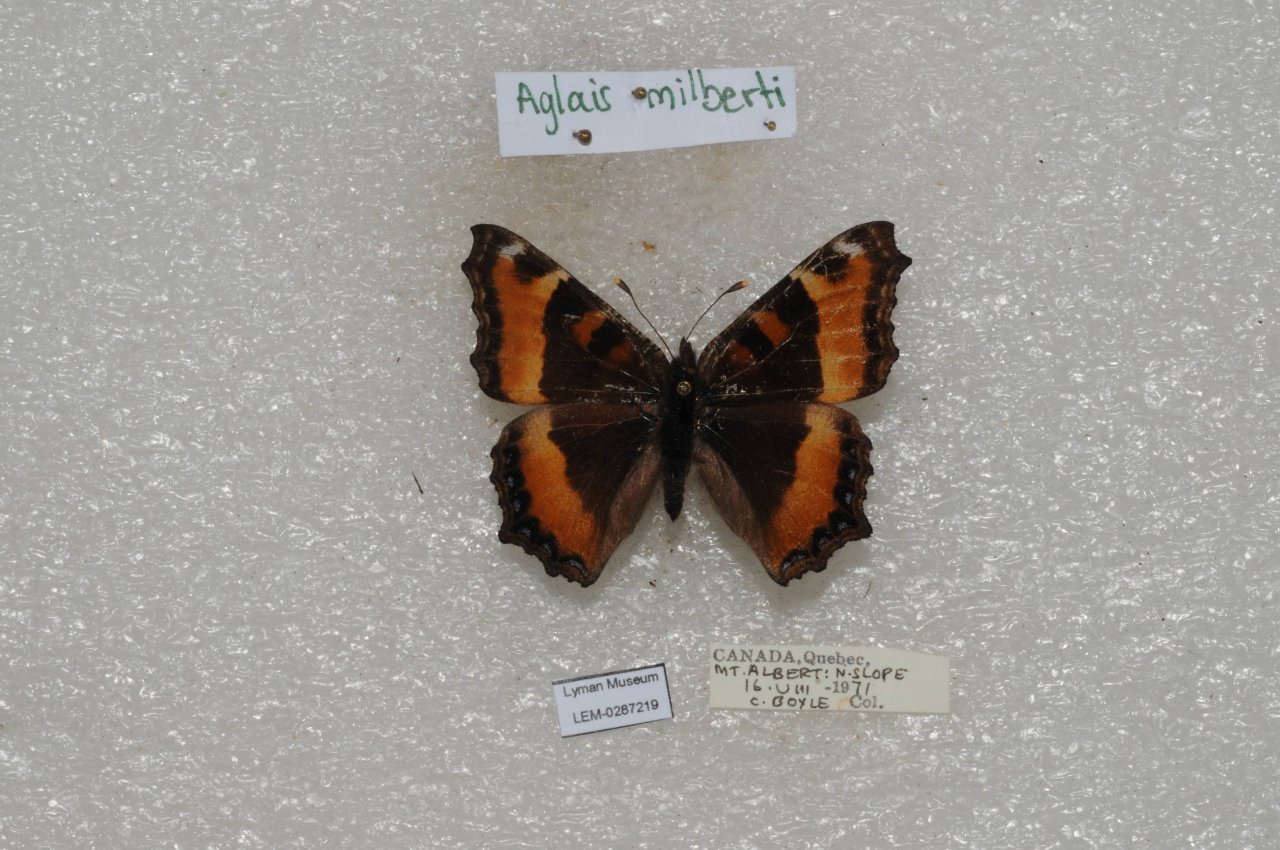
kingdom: Animalia
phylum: Arthropoda
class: Insecta
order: Lepidoptera
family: Nymphalidae
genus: Aglais
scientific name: Aglais milberti
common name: Milbert's Tortoiseshell
